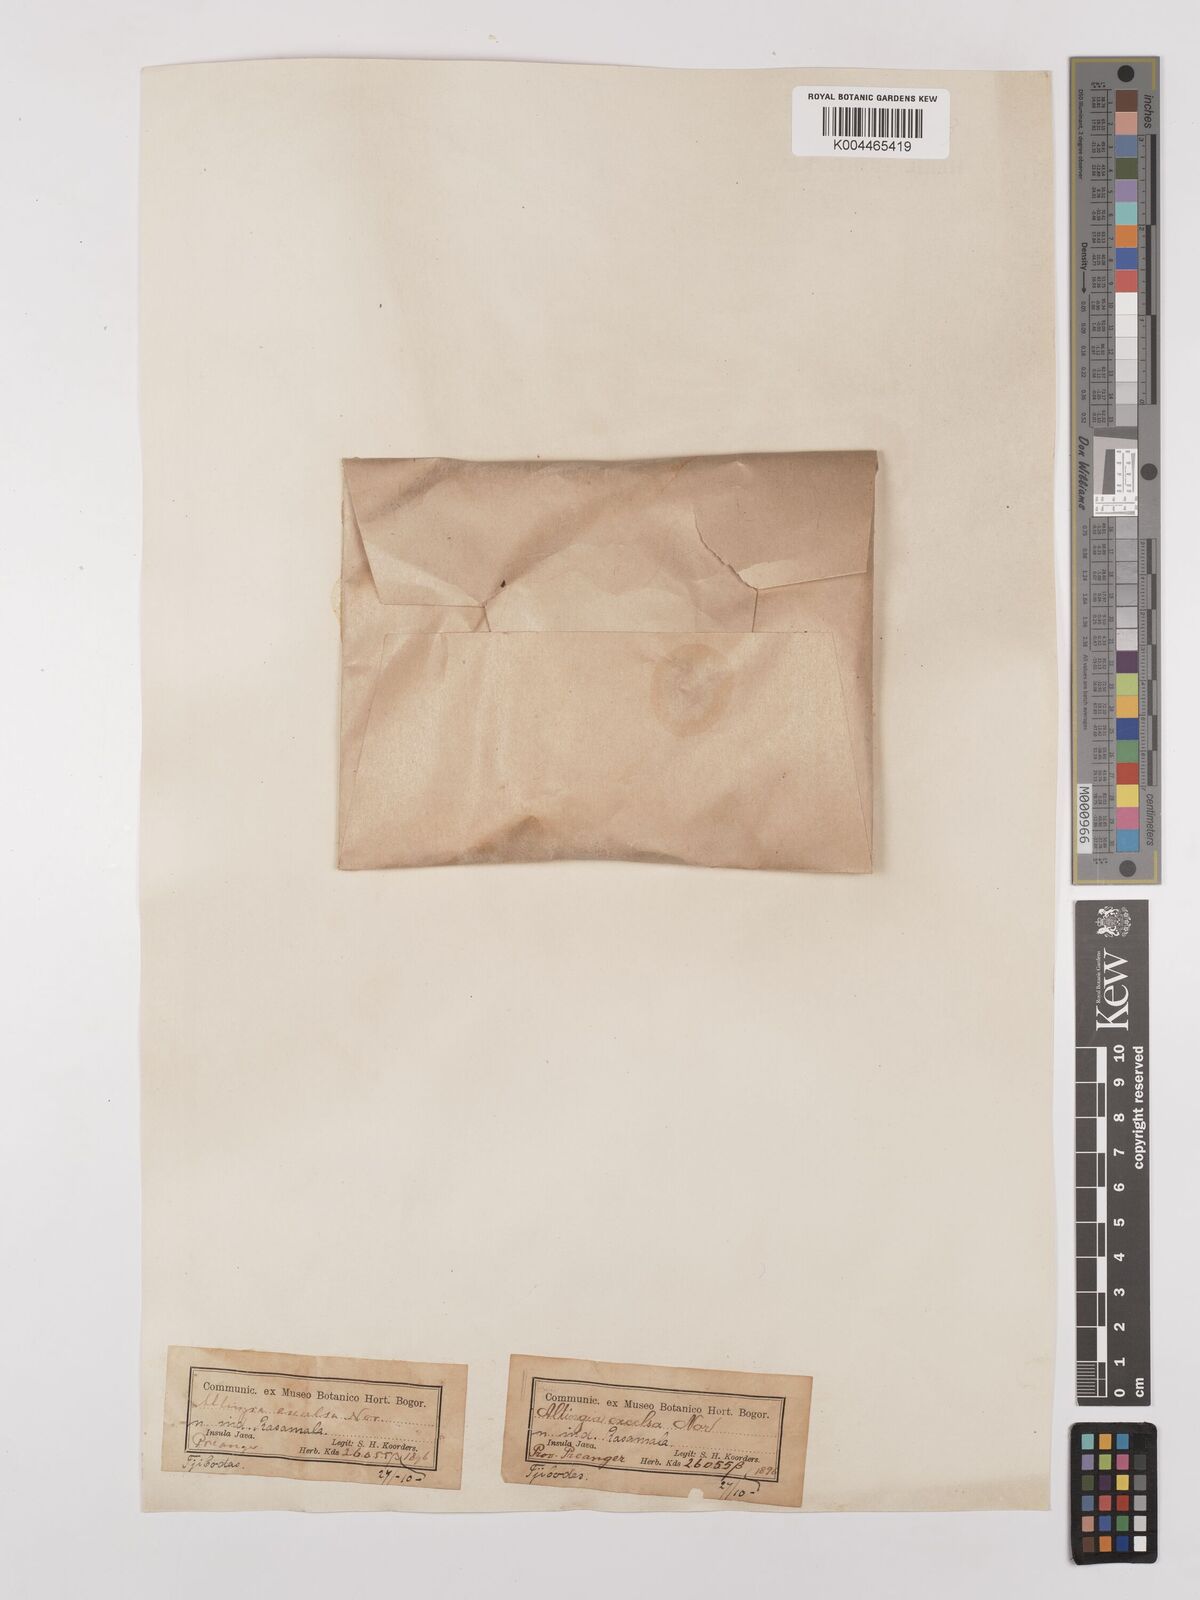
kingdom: Plantae
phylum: Tracheophyta
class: Magnoliopsida
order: Saxifragales
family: Altingiaceae
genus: Liquidambar
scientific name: Liquidambar excelsa
